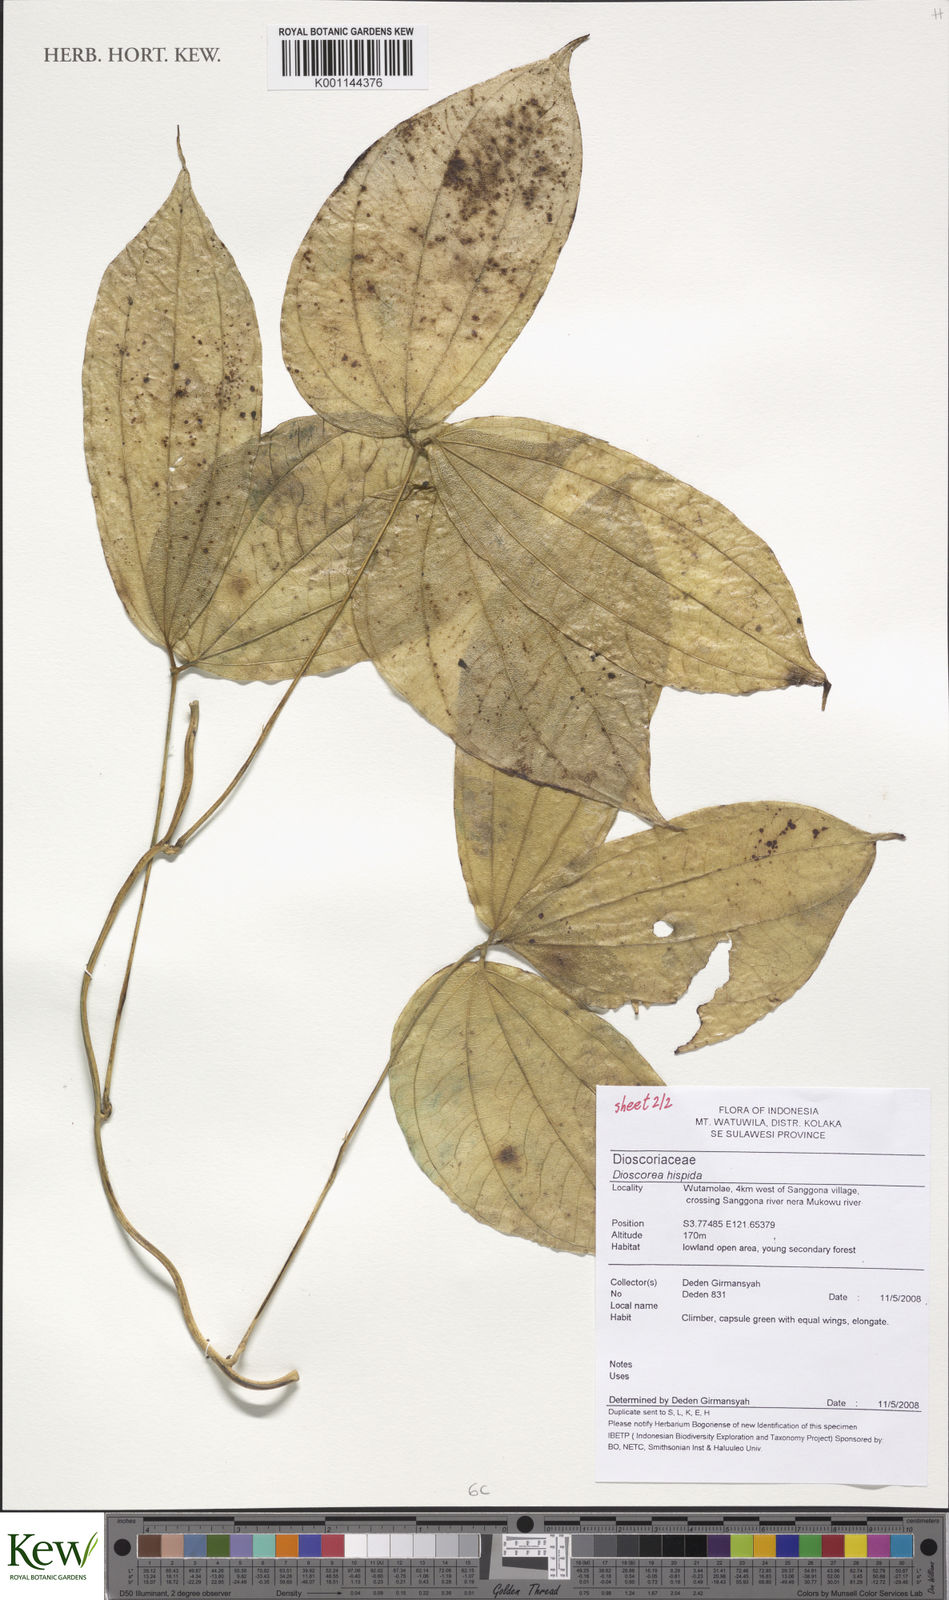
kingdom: Plantae
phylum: Tracheophyta
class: Liliopsida
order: Dioscoreales
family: Dioscoreaceae
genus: Dioscorea
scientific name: Dioscorea hispida
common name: Asiatic bitter yam
